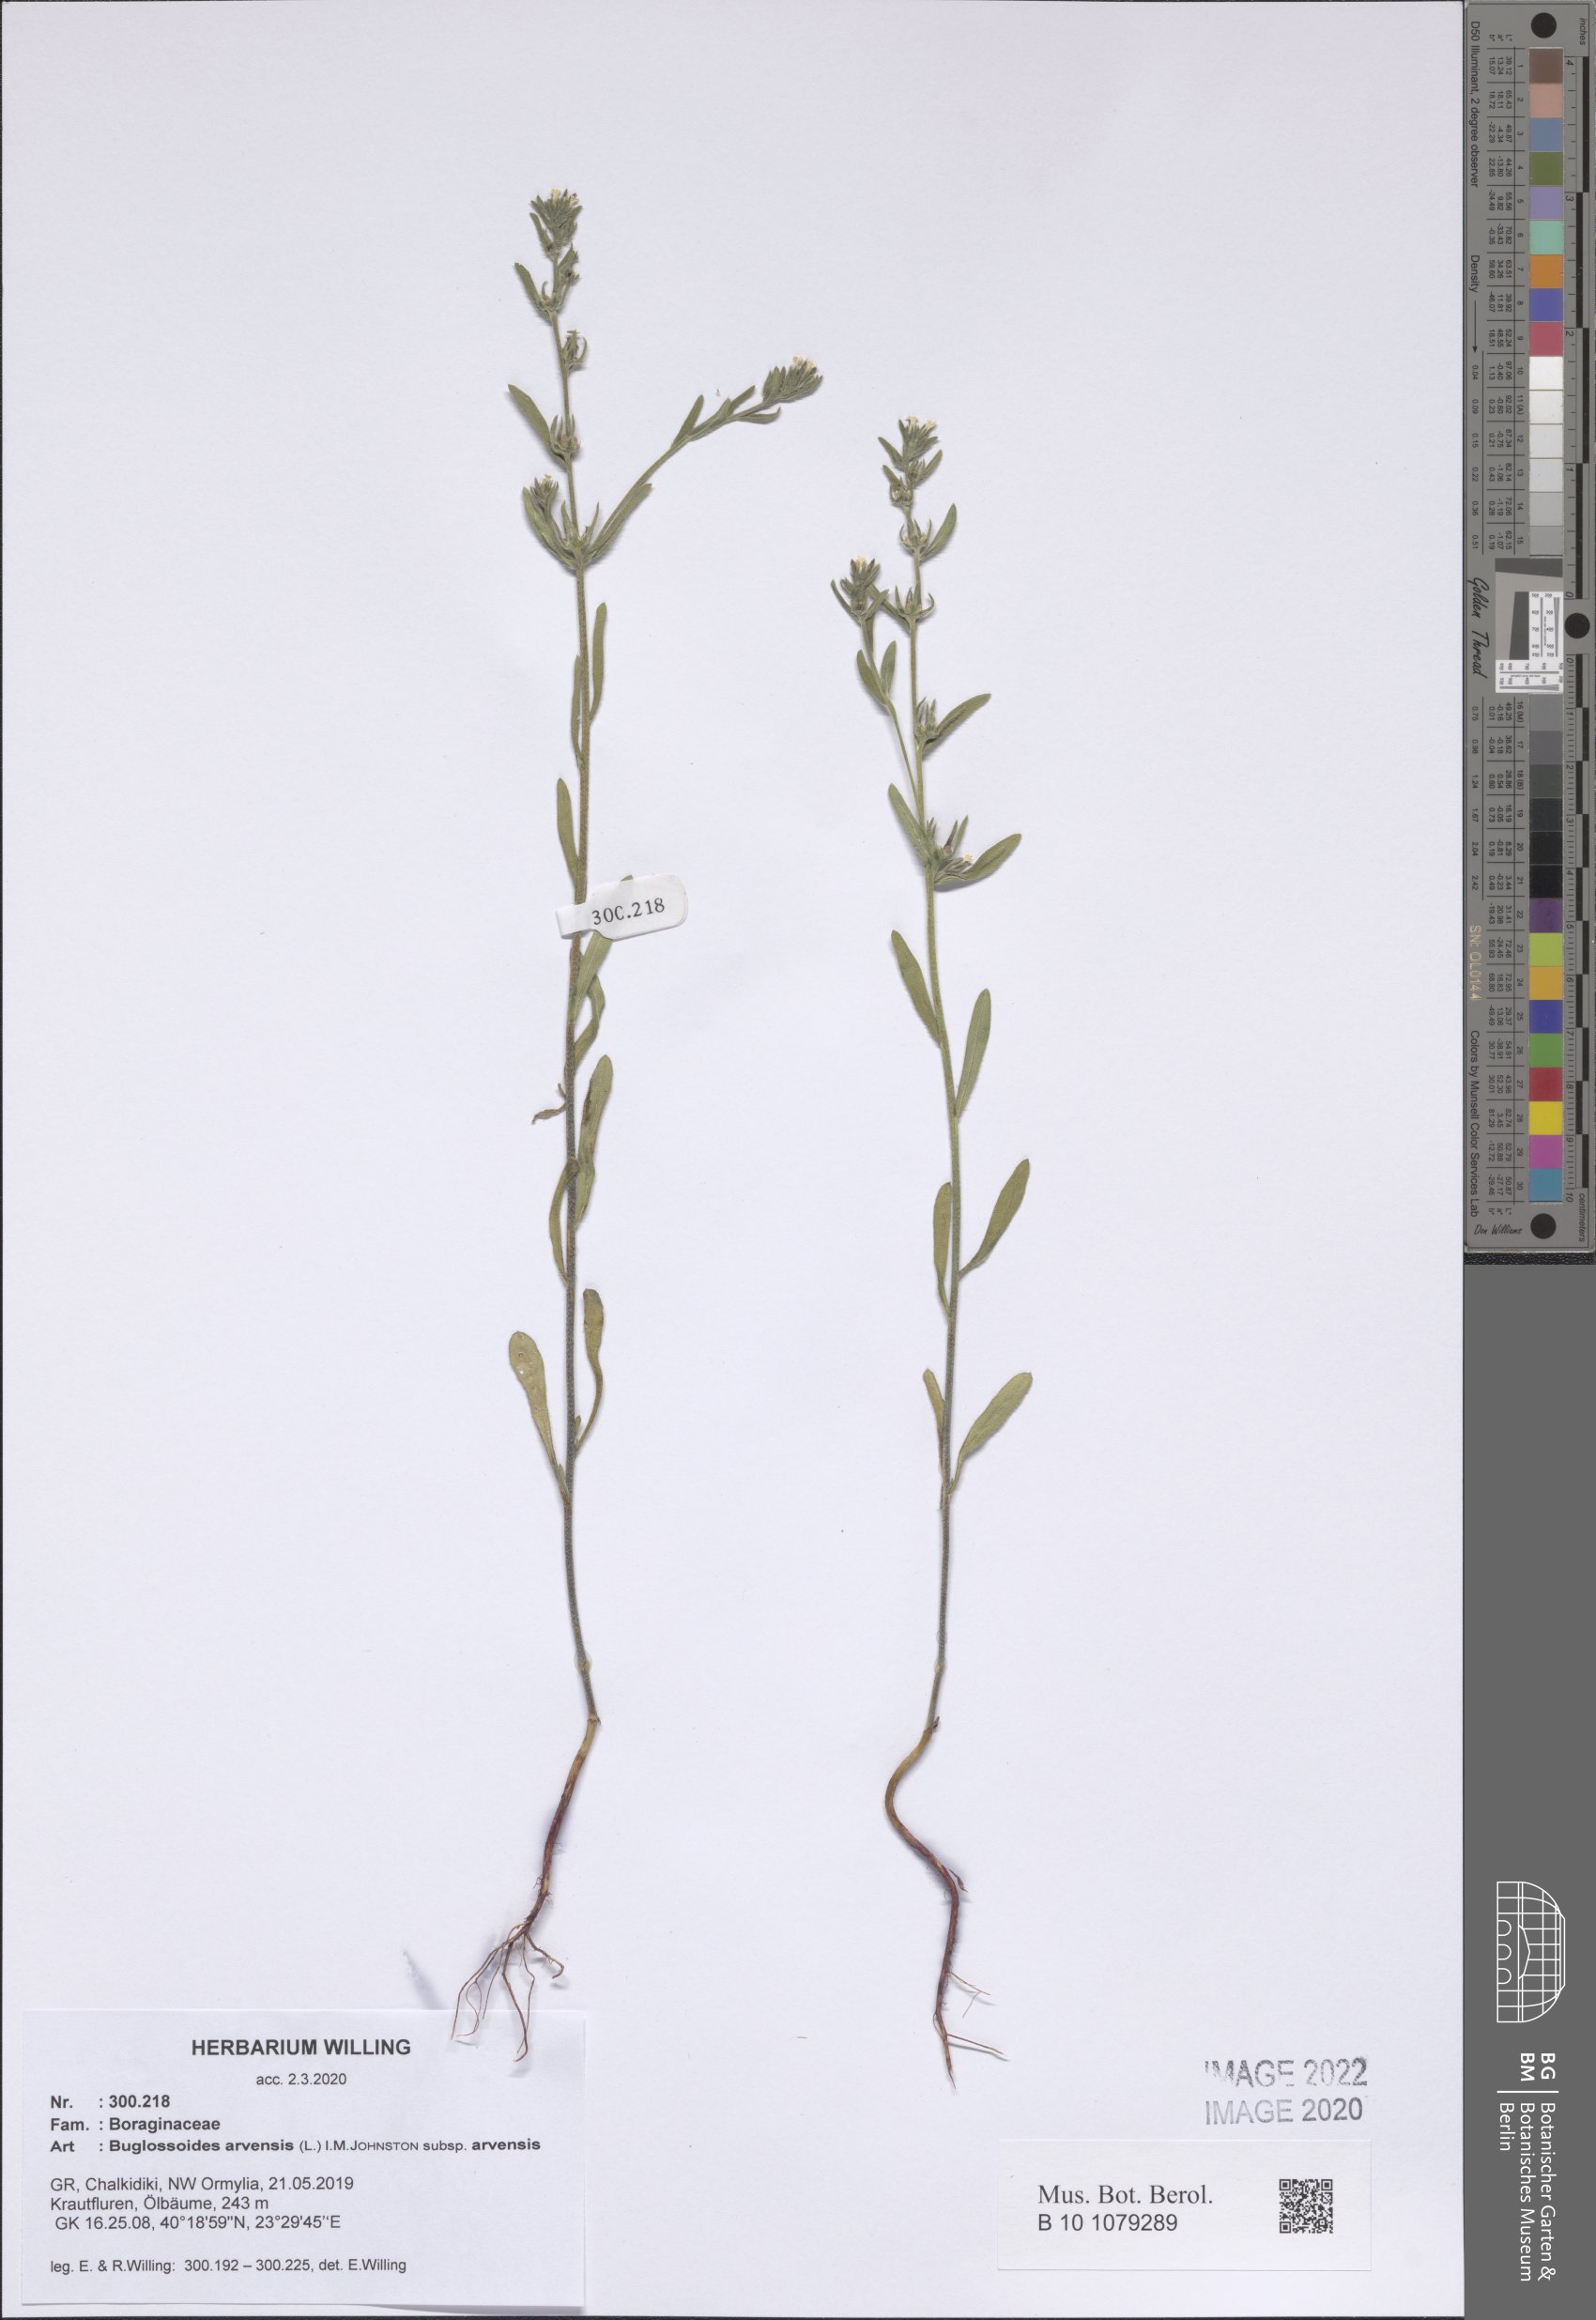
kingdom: Plantae
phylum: Tracheophyta
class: Magnoliopsida
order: Boraginales
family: Boraginaceae
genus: Buglossoides
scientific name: Buglossoides arvensis
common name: Corn gromwell
